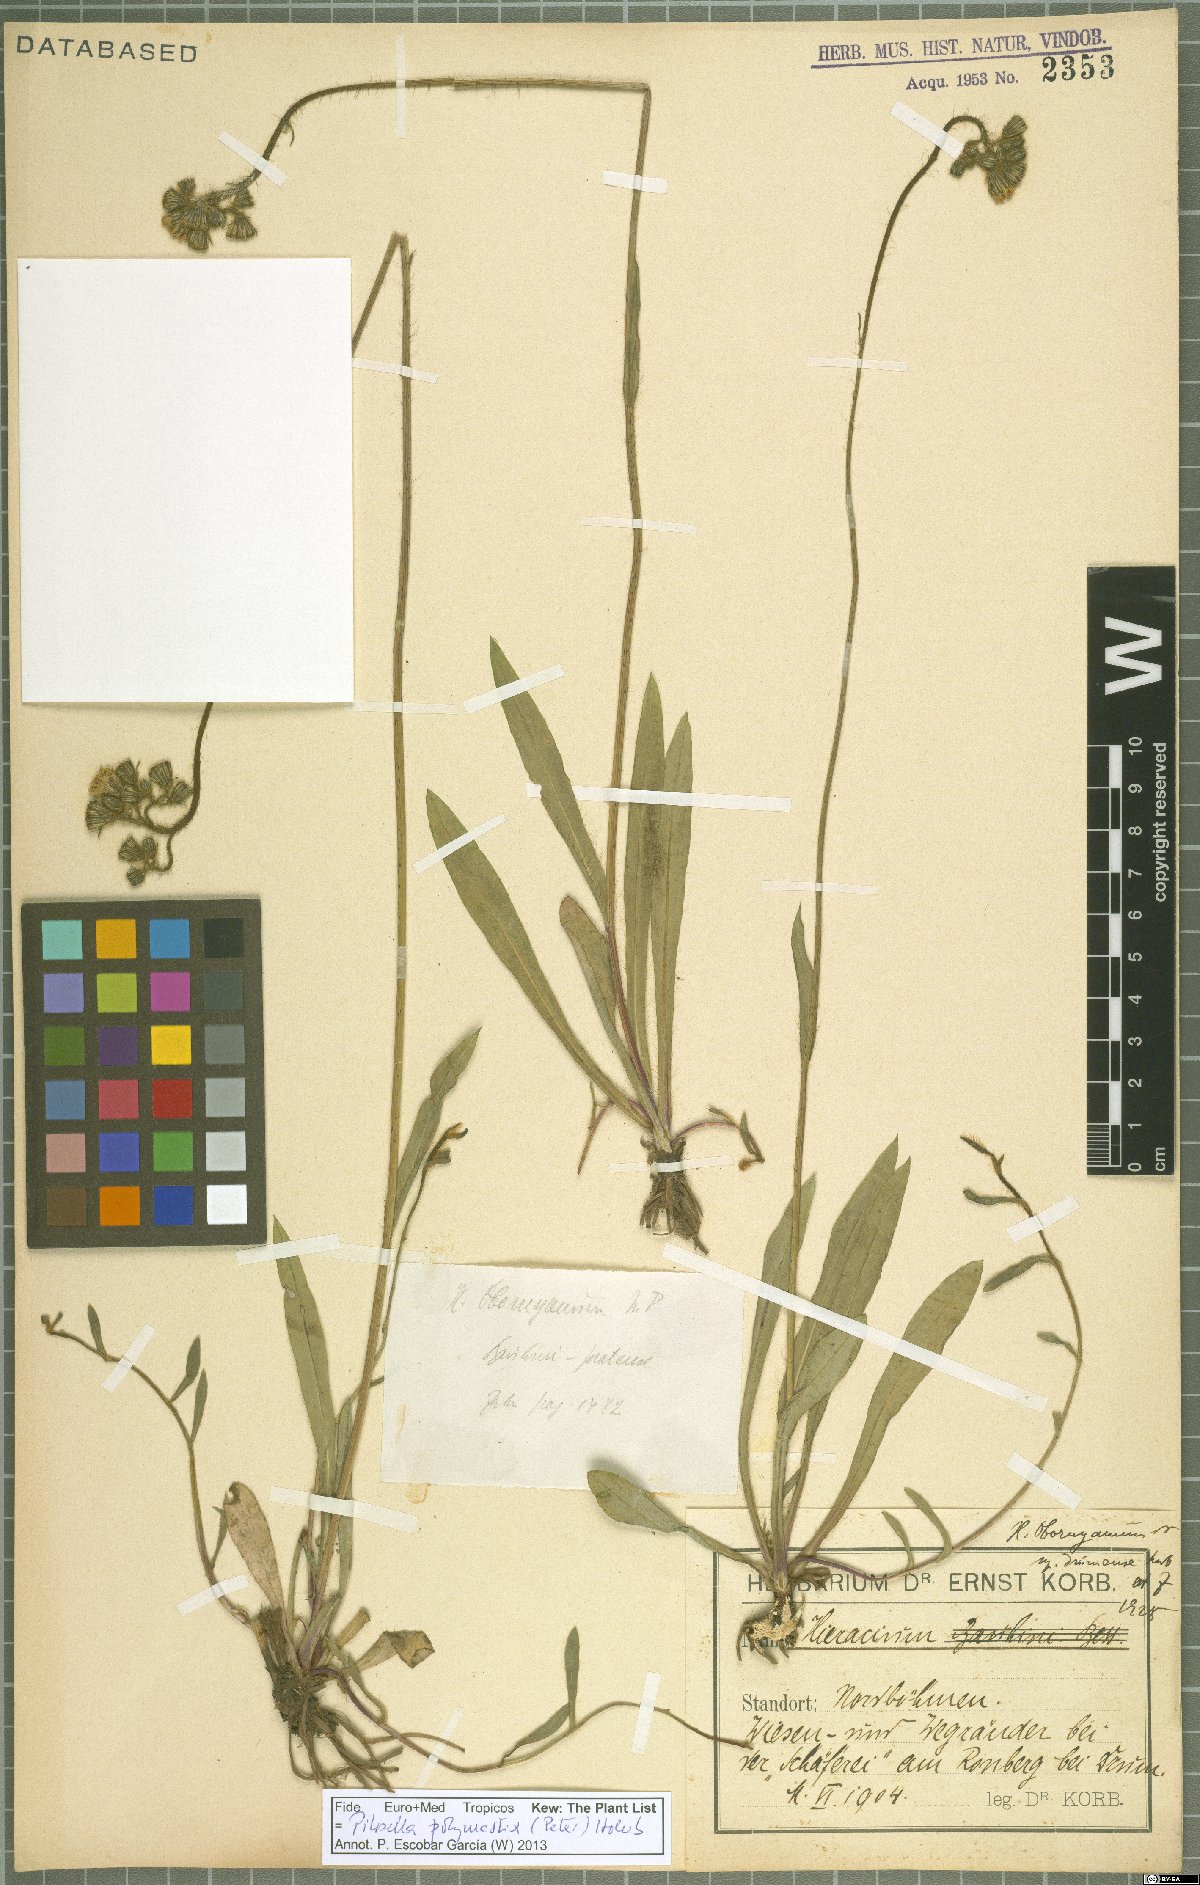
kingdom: Plantae
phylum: Tracheophyta
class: Magnoliopsida
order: Asterales
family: Asteraceae
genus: Pilosella
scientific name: Pilosella polymastix
